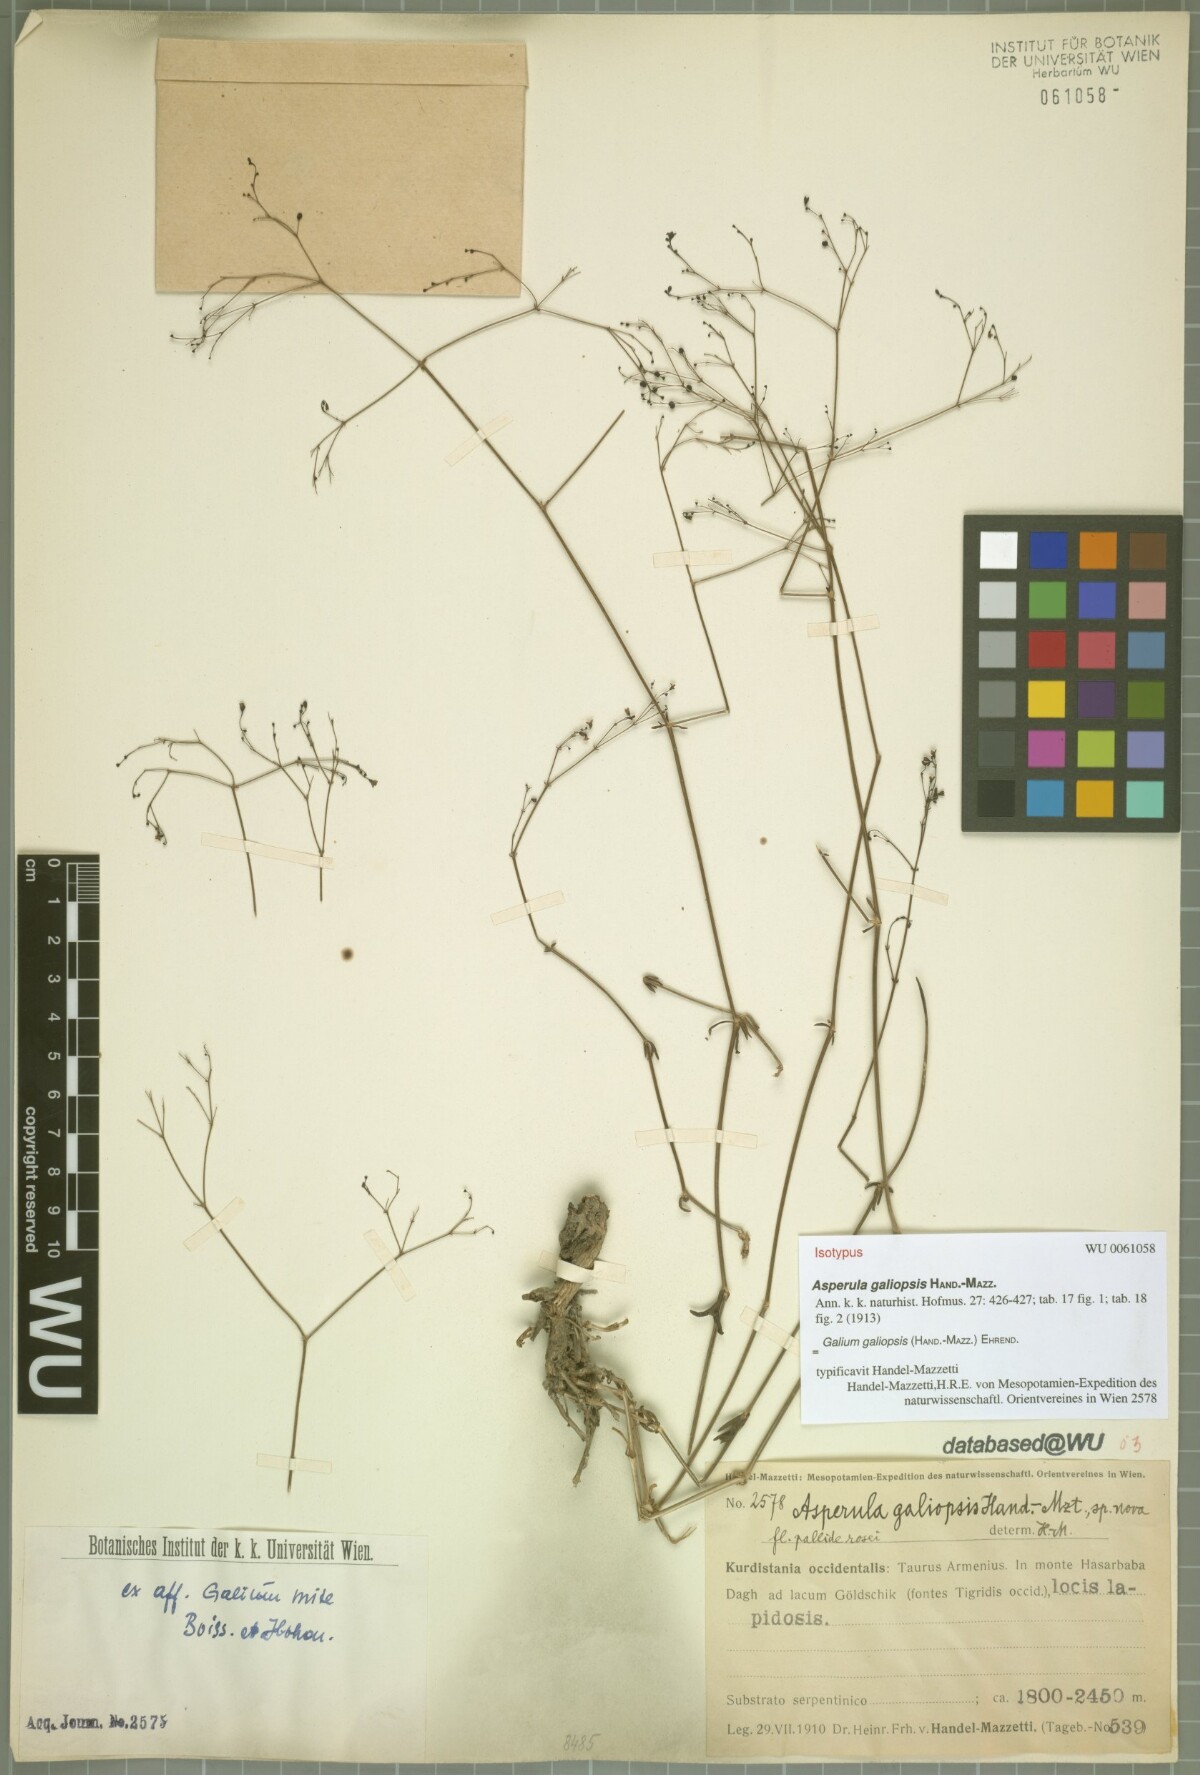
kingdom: Plantae
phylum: Tracheophyta
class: Magnoliopsida
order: Gentianales
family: Rubiaceae
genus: Galium
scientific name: Galium galiopsis
